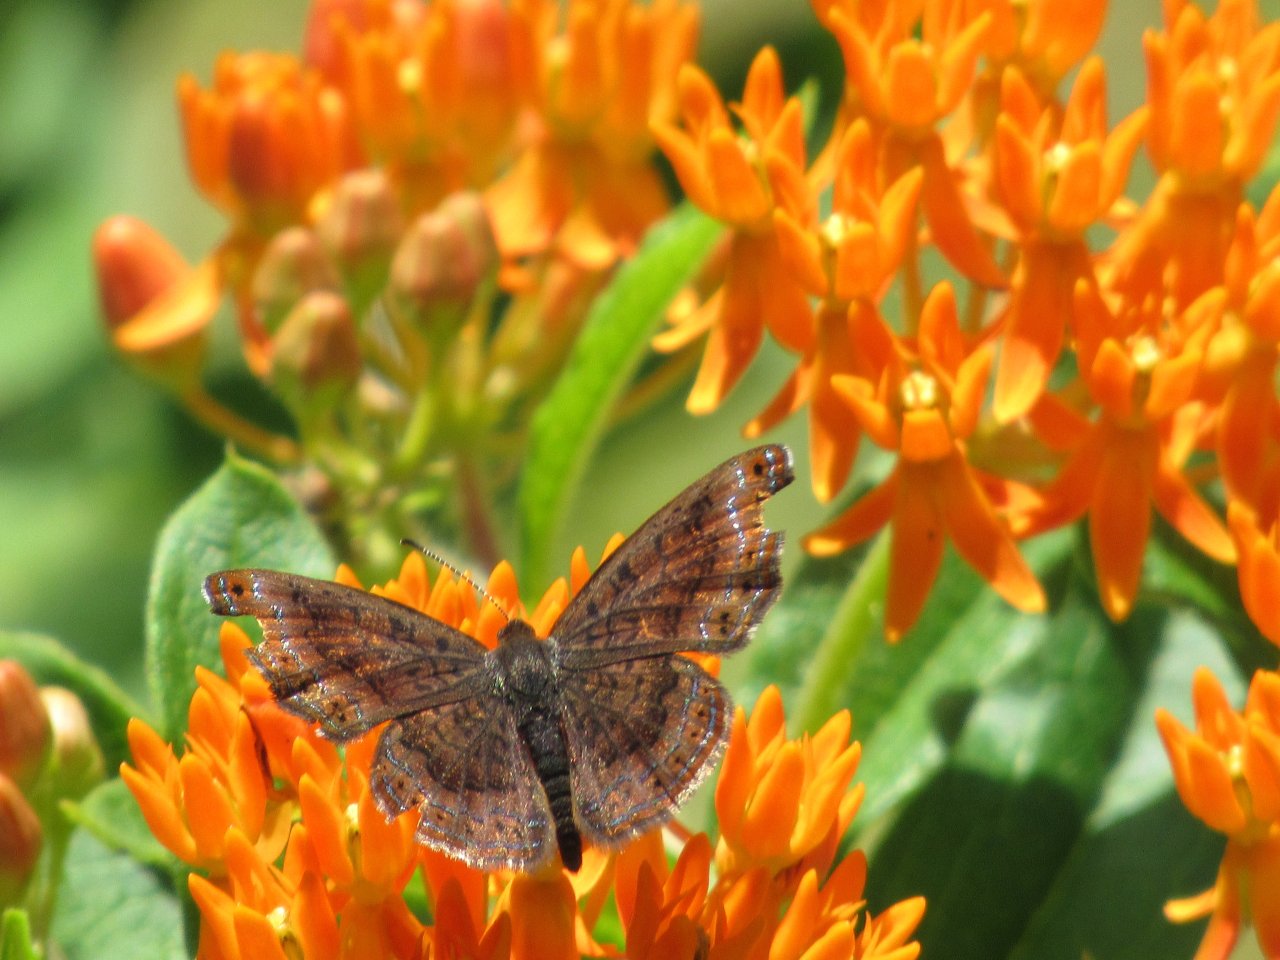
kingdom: Animalia
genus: Calephelis
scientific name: Calephelis borealis
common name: Northern Metalmark
